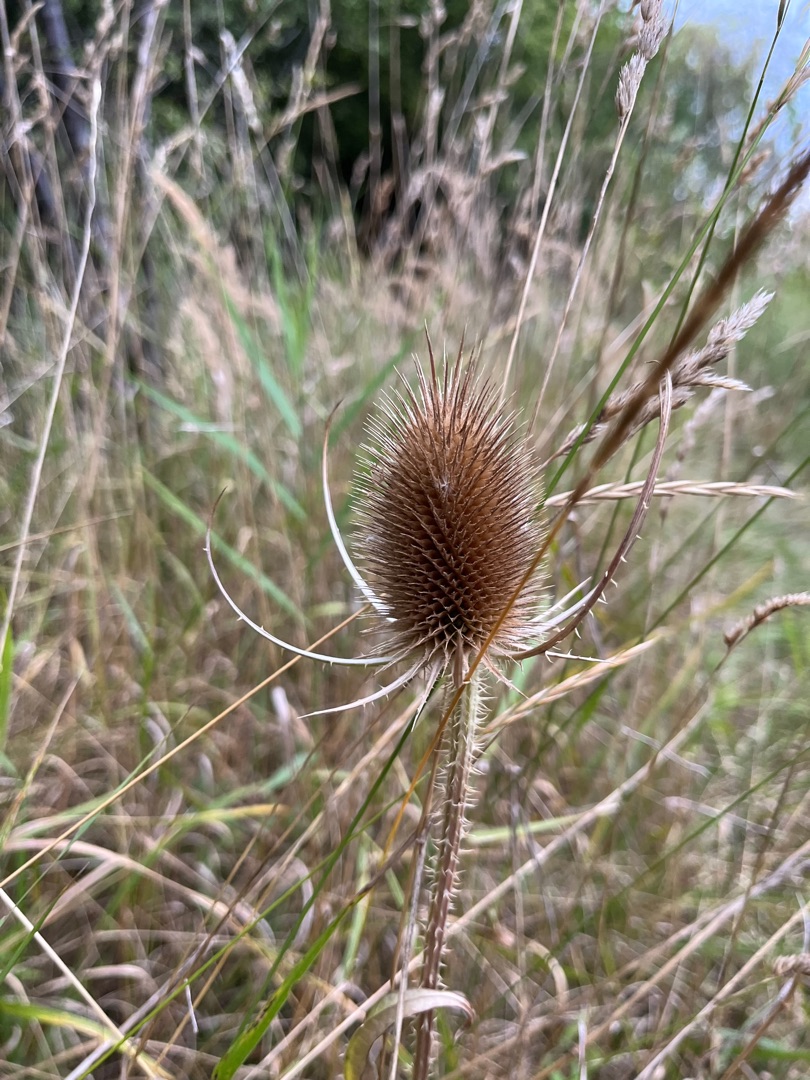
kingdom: Plantae
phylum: Tracheophyta
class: Magnoliopsida
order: Dipsacales
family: Caprifoliaceae
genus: Dipsacus
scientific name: Dipsacus fullonum
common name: Gærde-kartebolle
